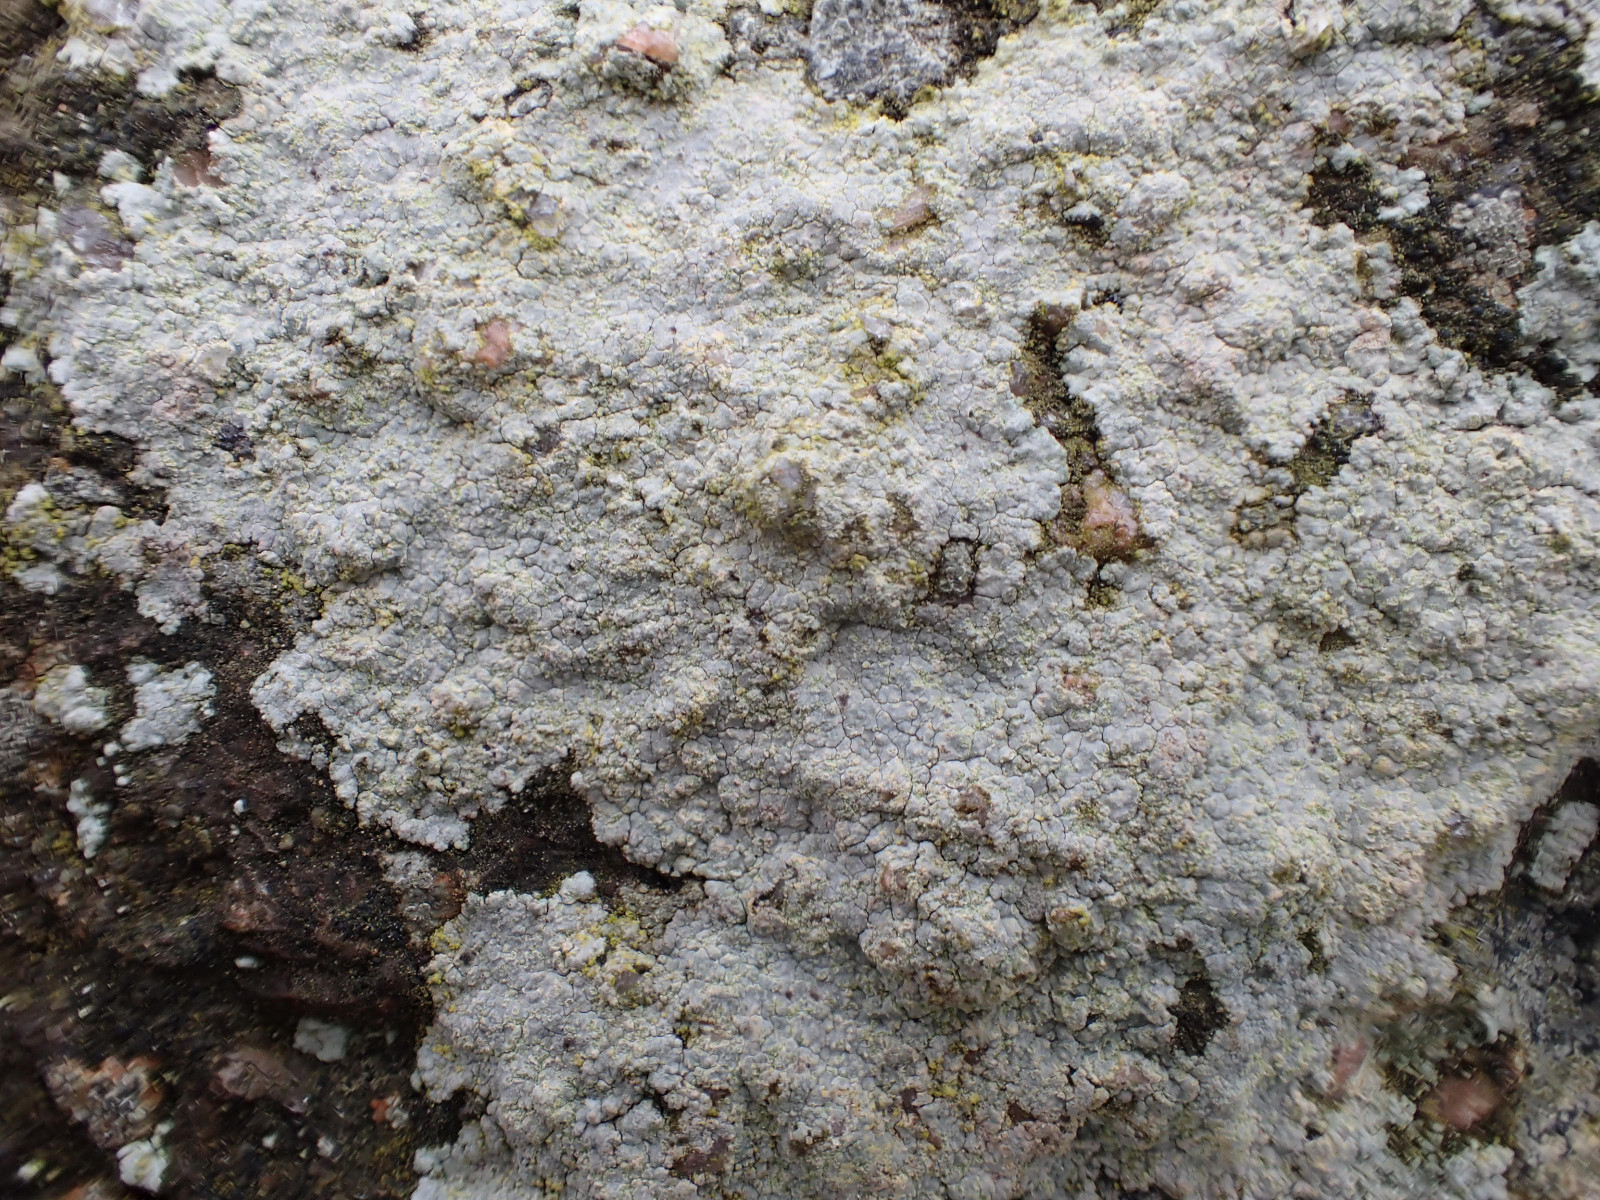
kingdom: Fungi
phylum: Ascomycota
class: Lecanoromycetes
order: Baeomycetales
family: Trapeliaceae
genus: Kleopowiella
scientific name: Kleopowiella placodioides
